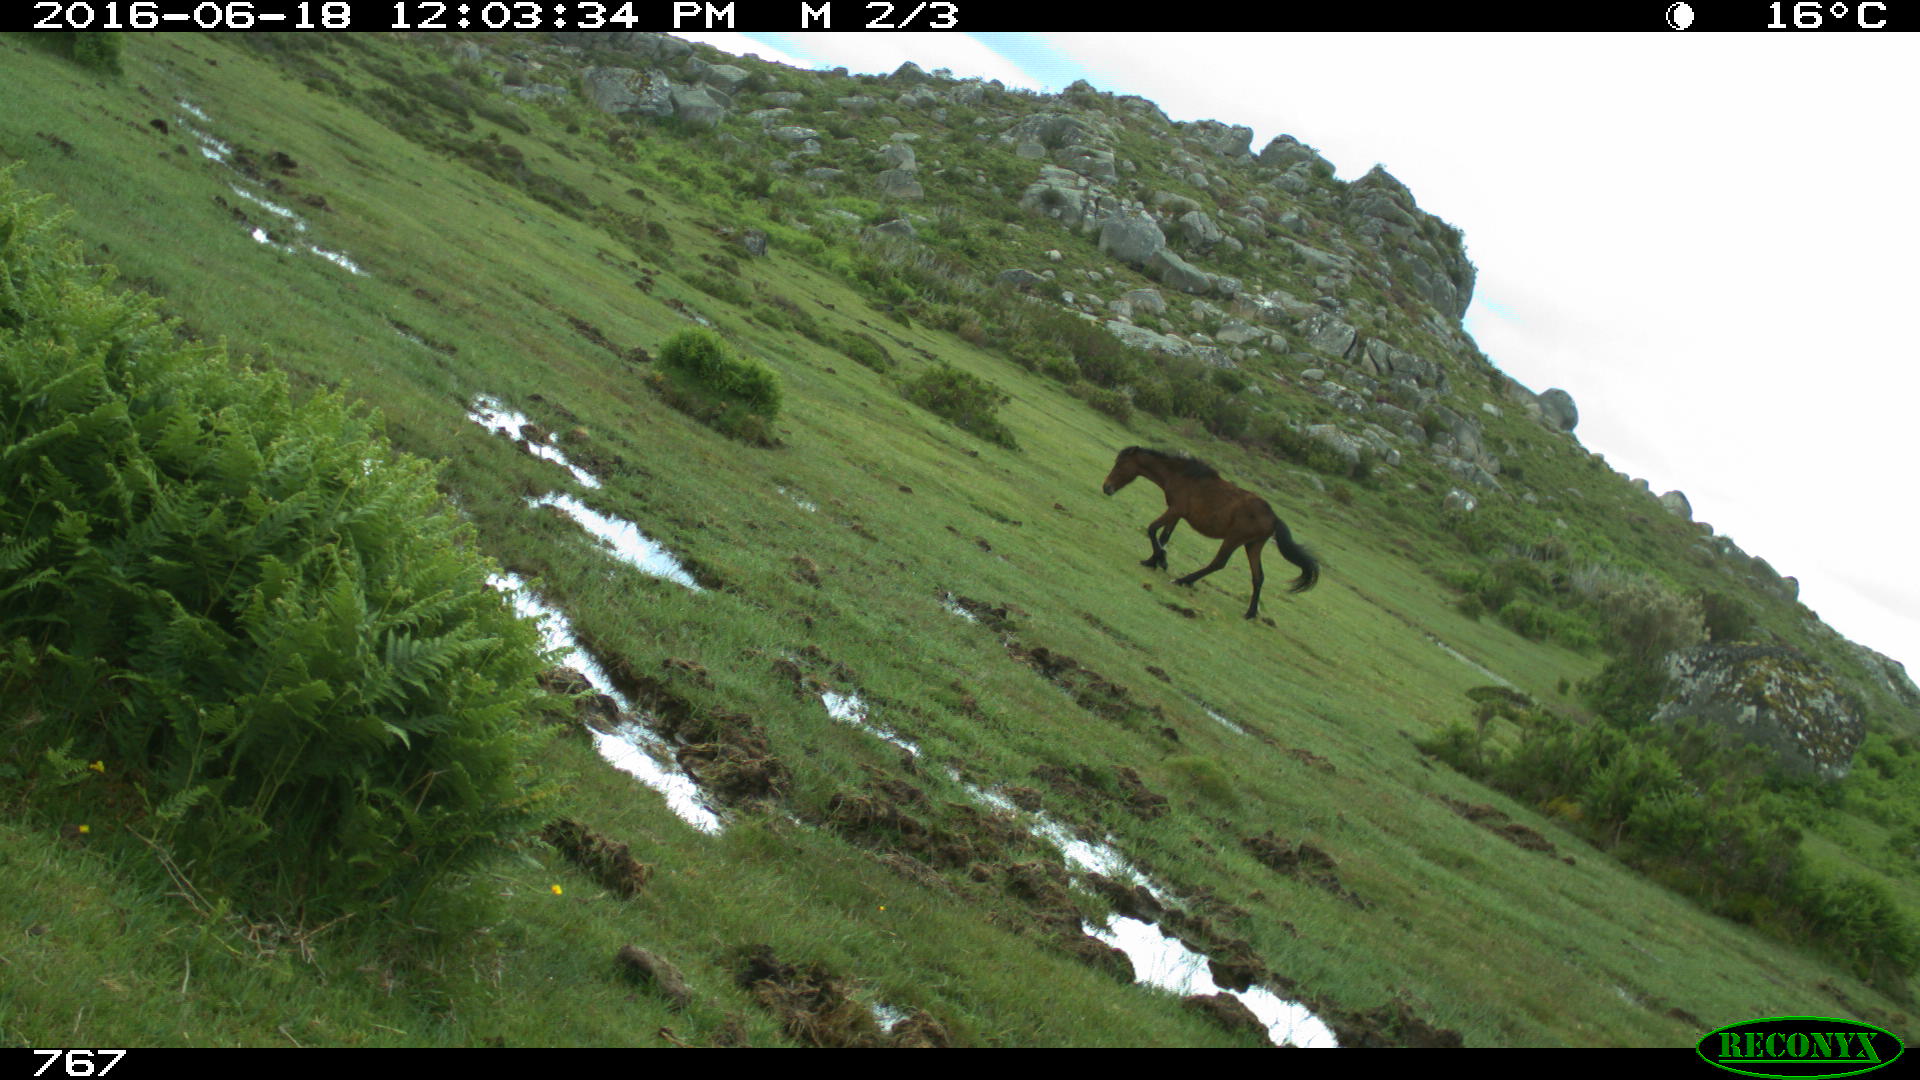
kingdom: Animalia
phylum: Chordata
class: Mammalia
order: Perissodactyla
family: Equidae
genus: Equus
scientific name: Equus caballus
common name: Horse
